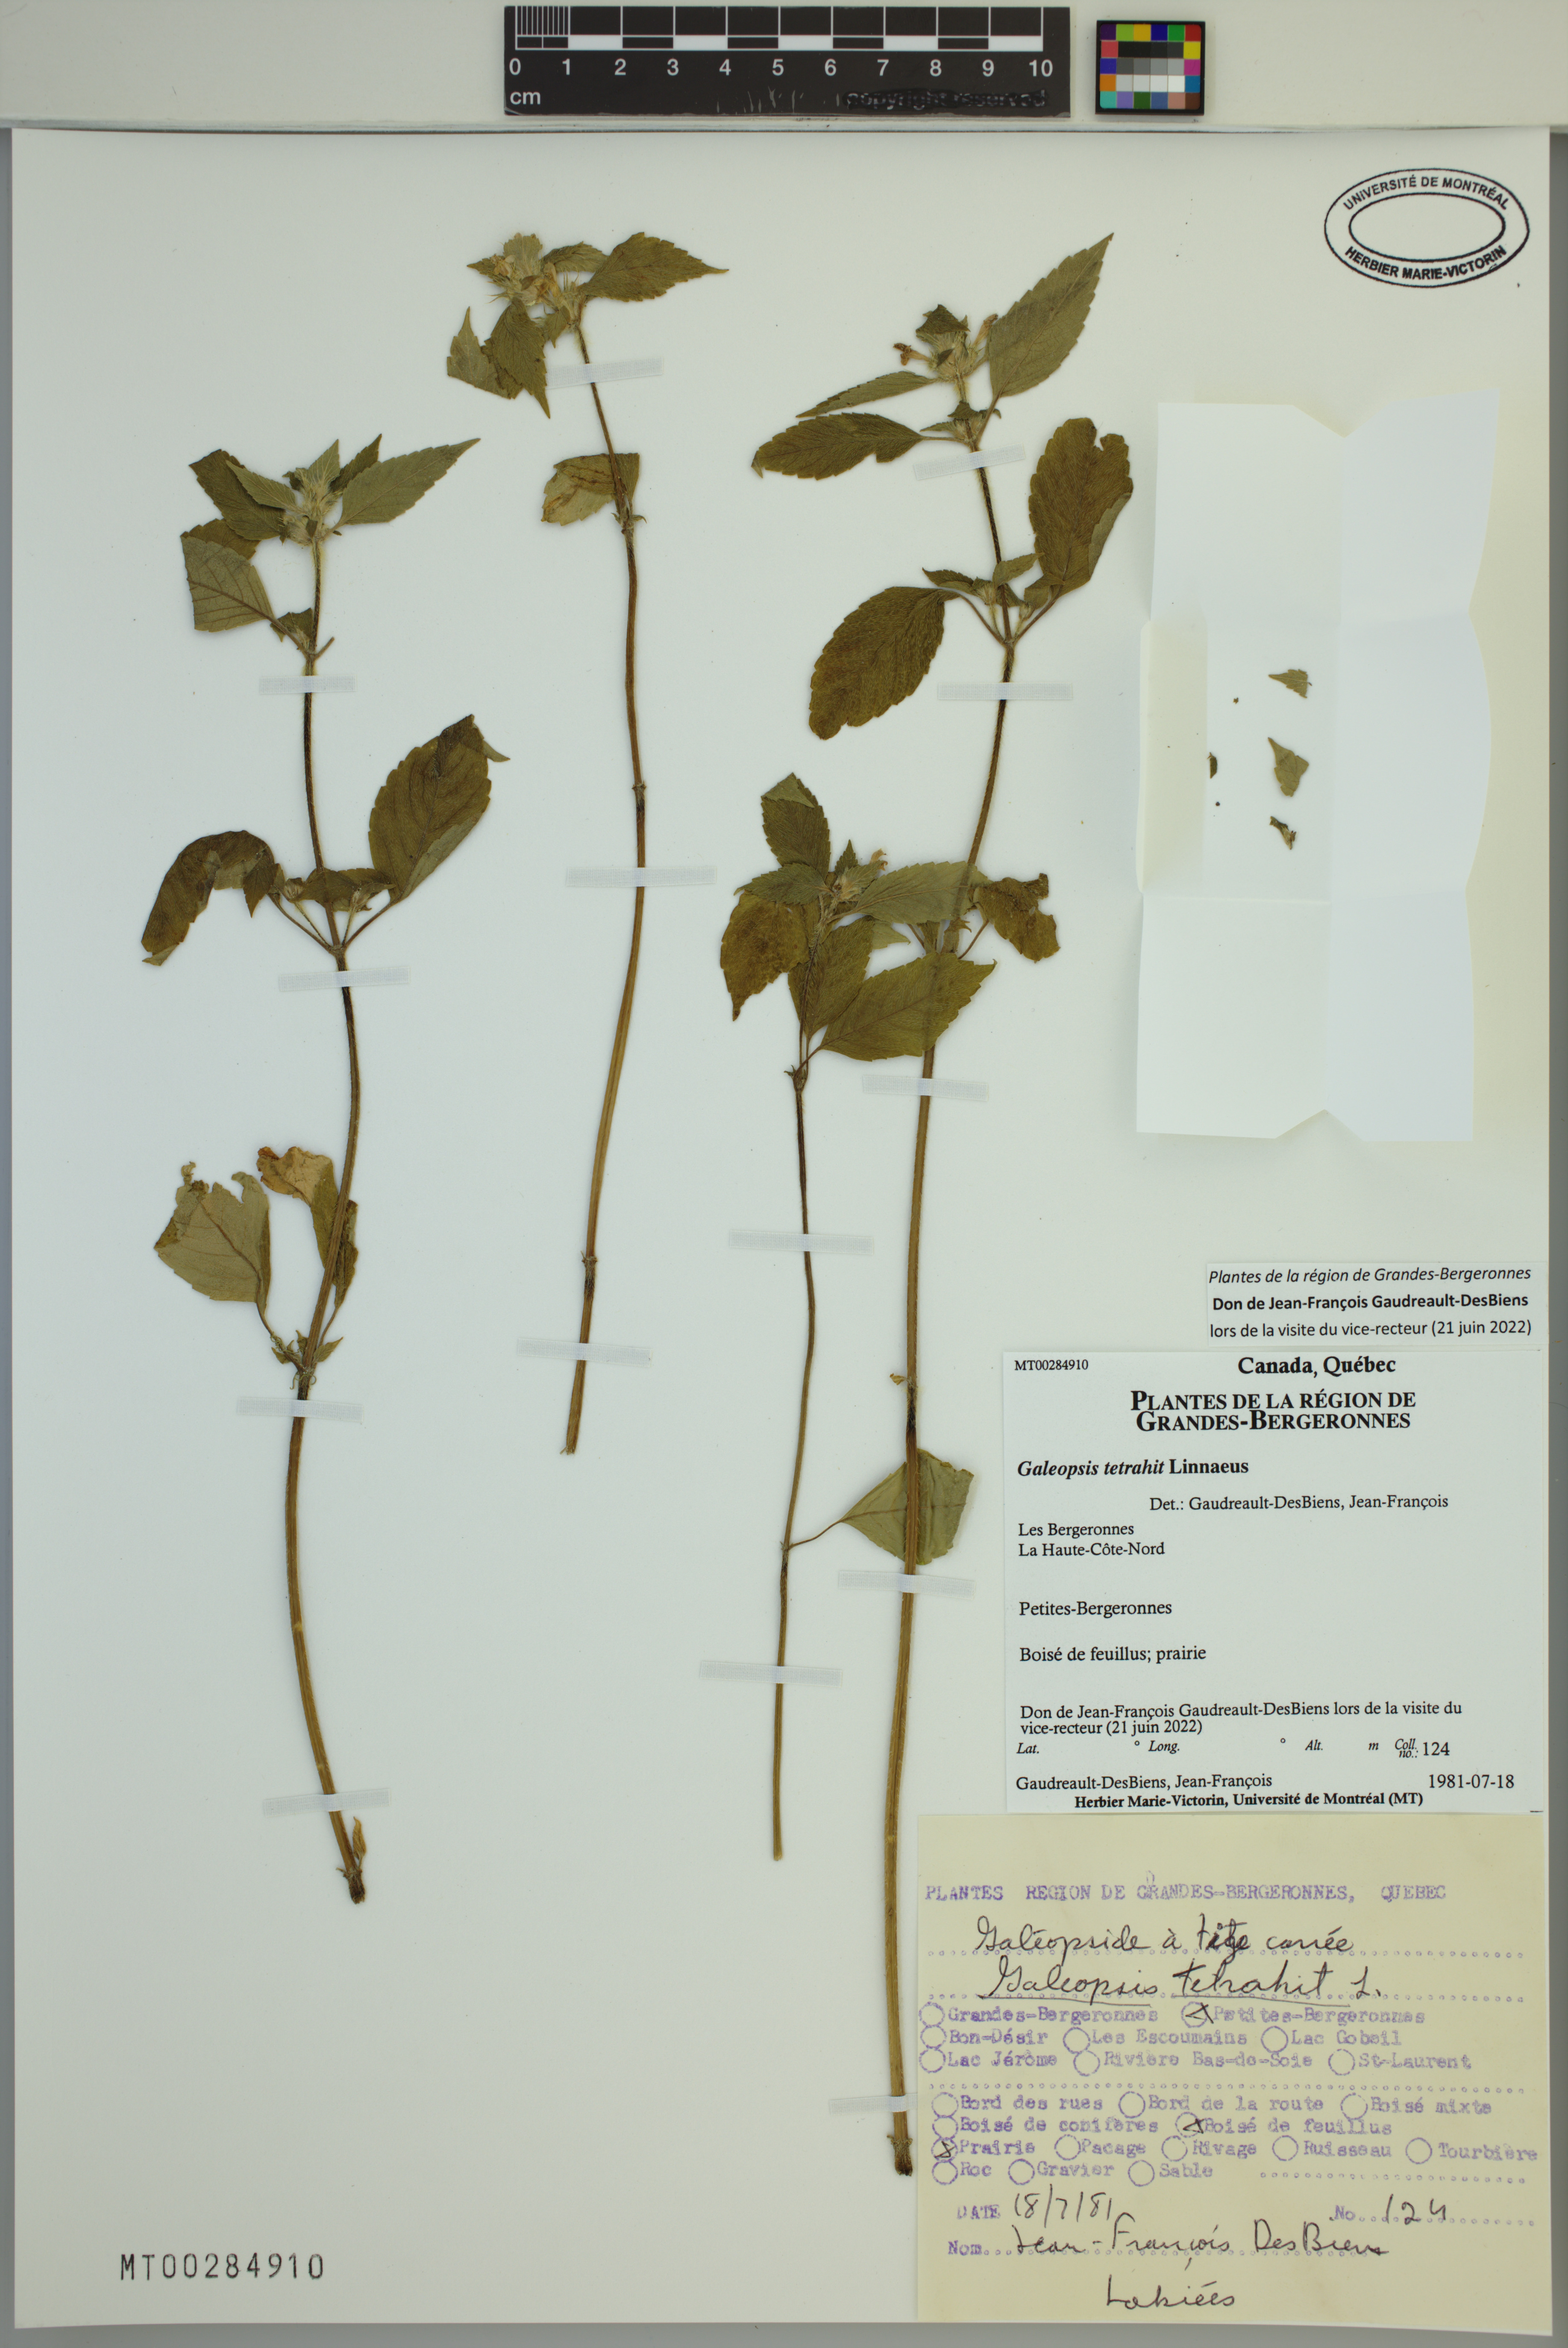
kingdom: Plantae
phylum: Tracheophyta
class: Magnoliopsida
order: Lamiales
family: Lamiaceae
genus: Galeopsis
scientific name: Galeopsis tetrahit
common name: Common hemp-nettle
